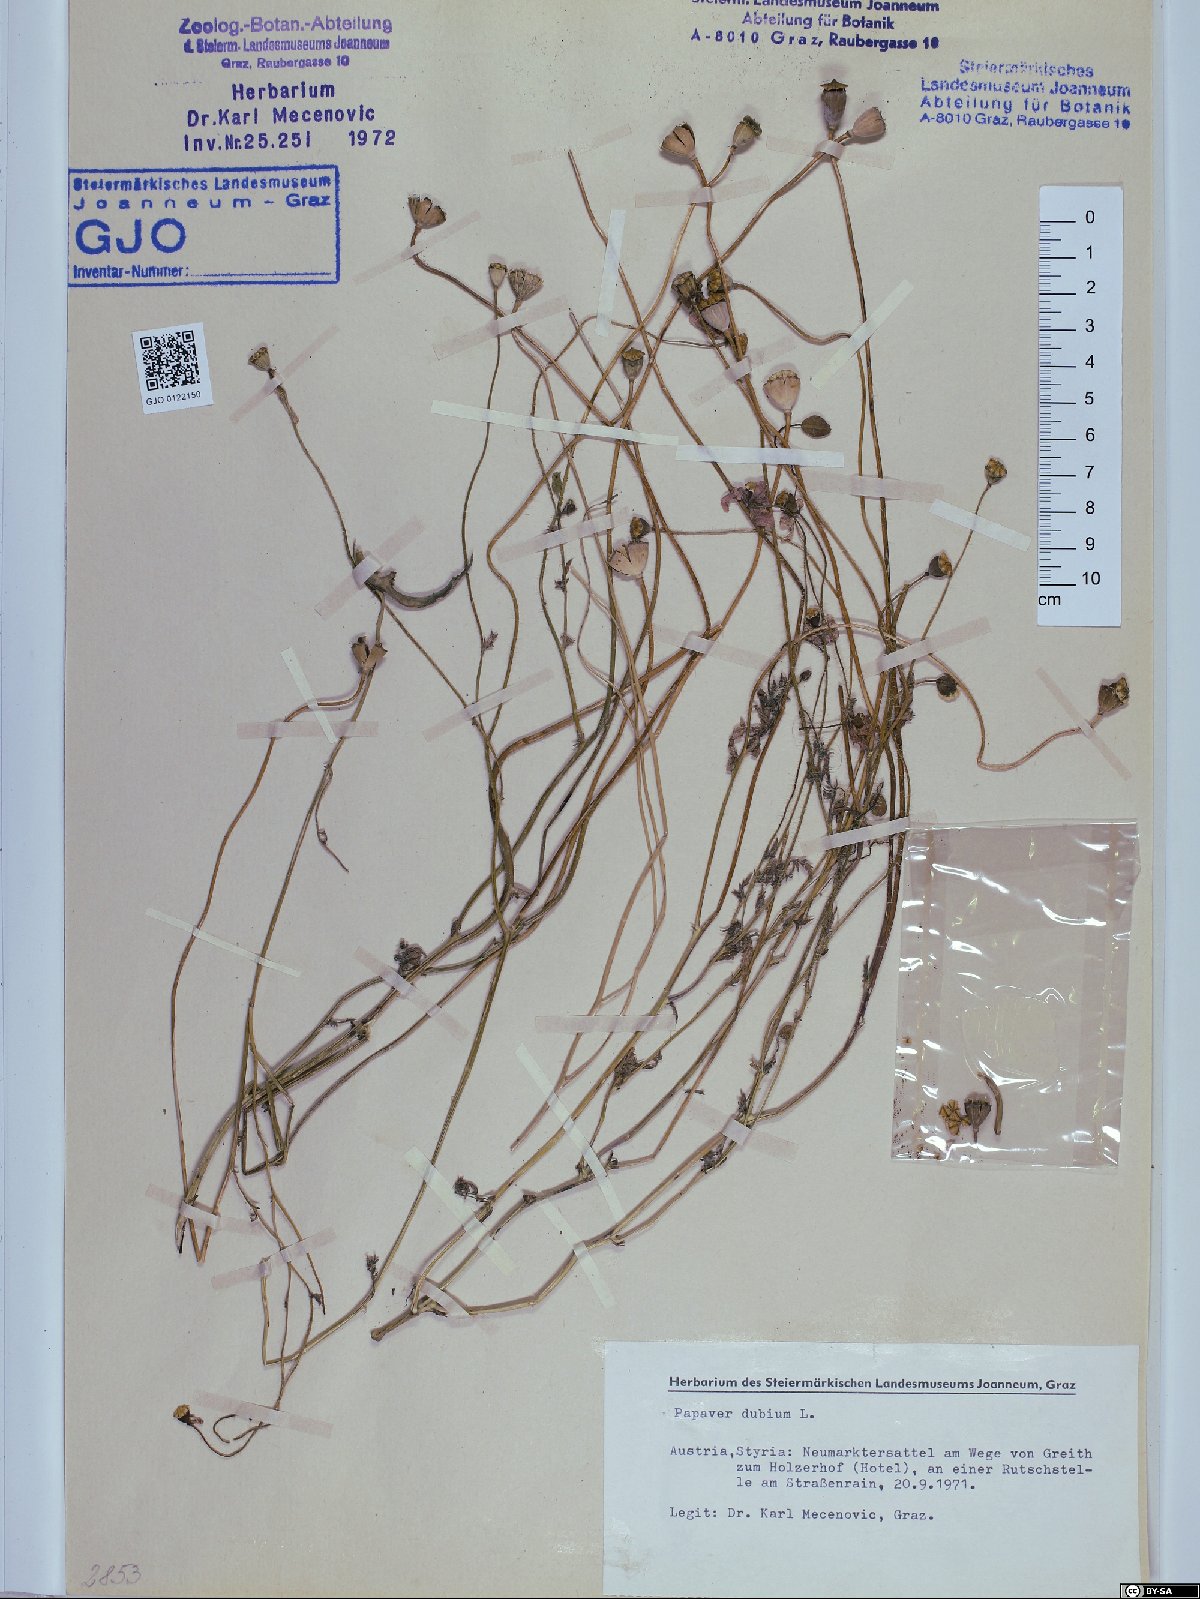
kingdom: Plantae
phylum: Tracheophyta
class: Magnoliopsida
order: Ranunculales
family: Papaveraceae
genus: Papaver
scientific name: Papaver dubium
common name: Long-headed poppy
